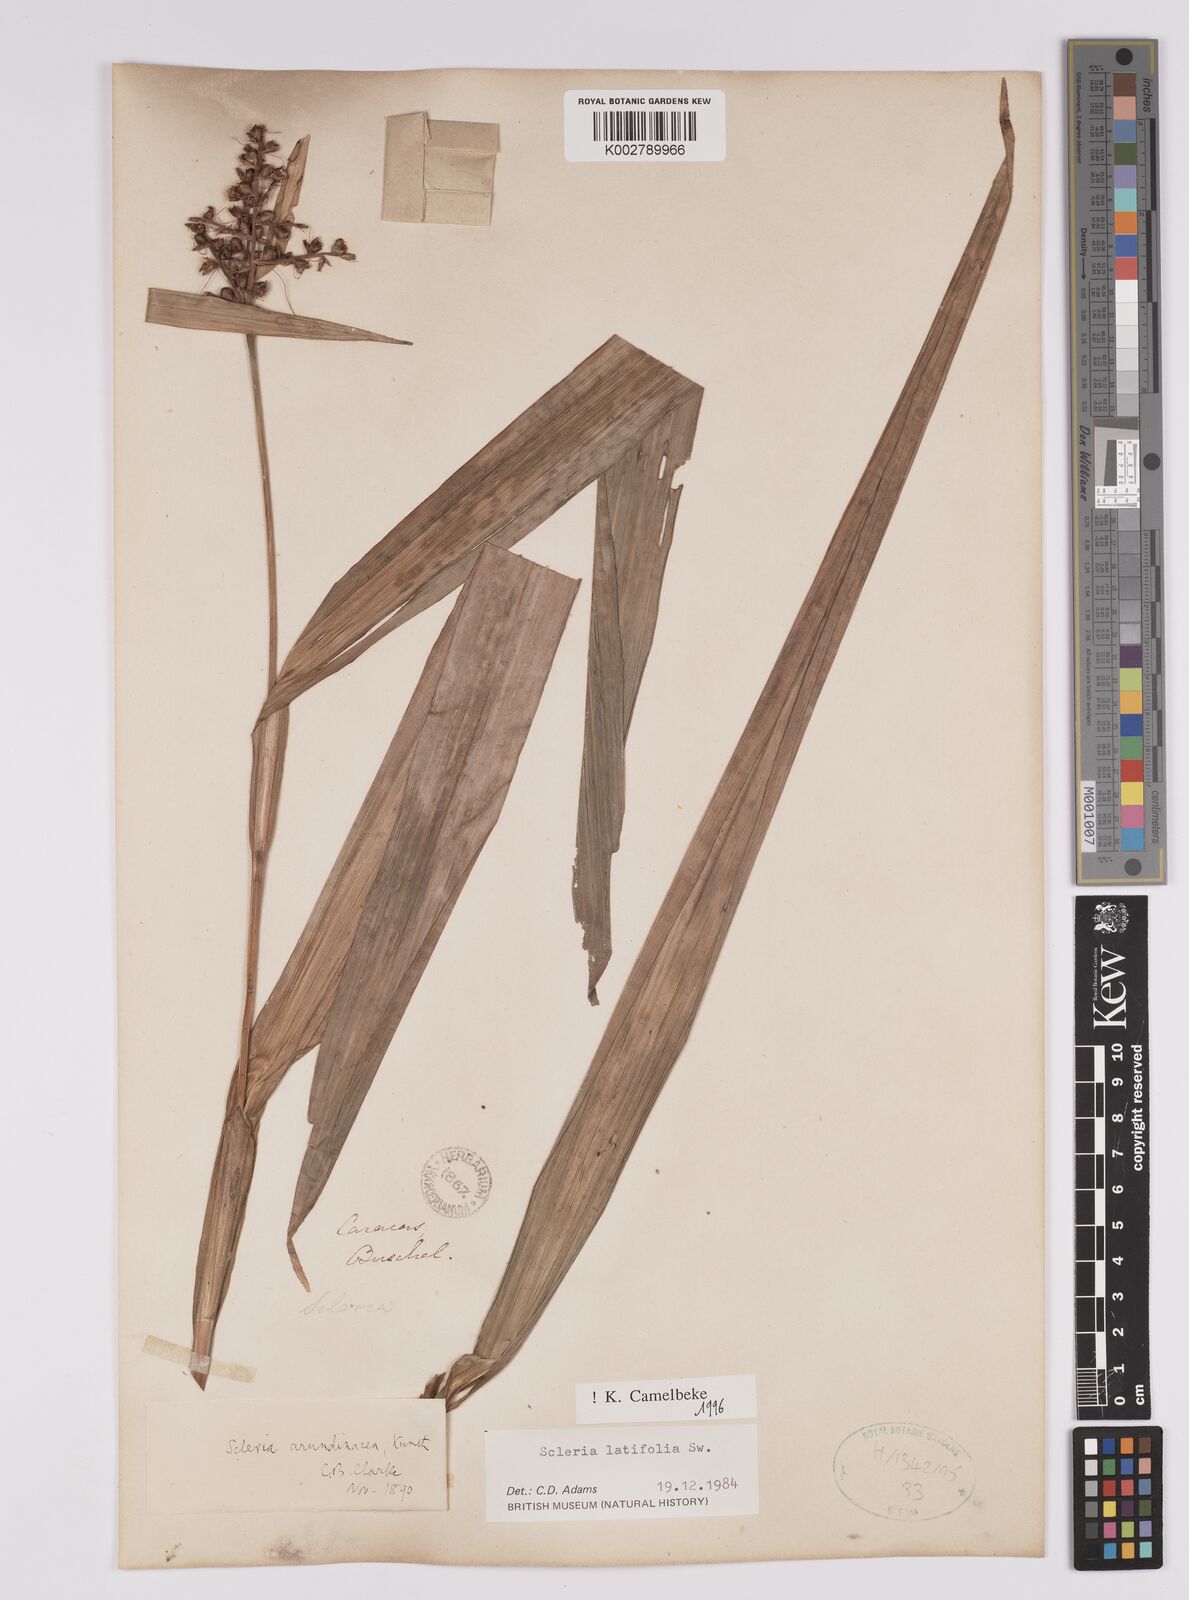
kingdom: Plantae
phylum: Tracheophyta
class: Liliopsida
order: Poales
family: Cyperaceae
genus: Scleria
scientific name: Scleria latifolia
